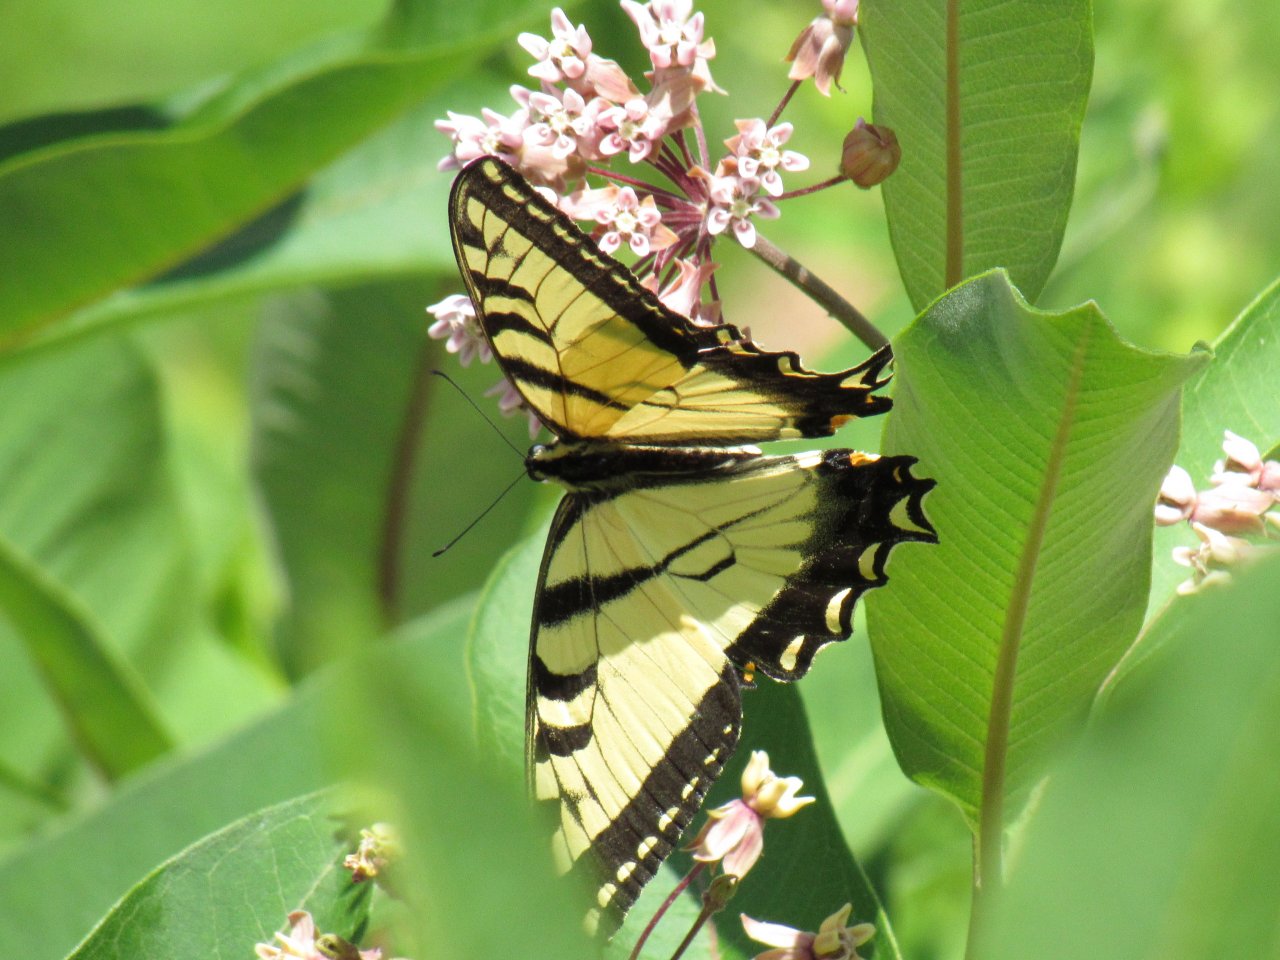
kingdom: Animalia
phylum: Arthropoda
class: Insecta
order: Lepidoptera
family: Papilionidae
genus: Pterourus
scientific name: Pterourus
